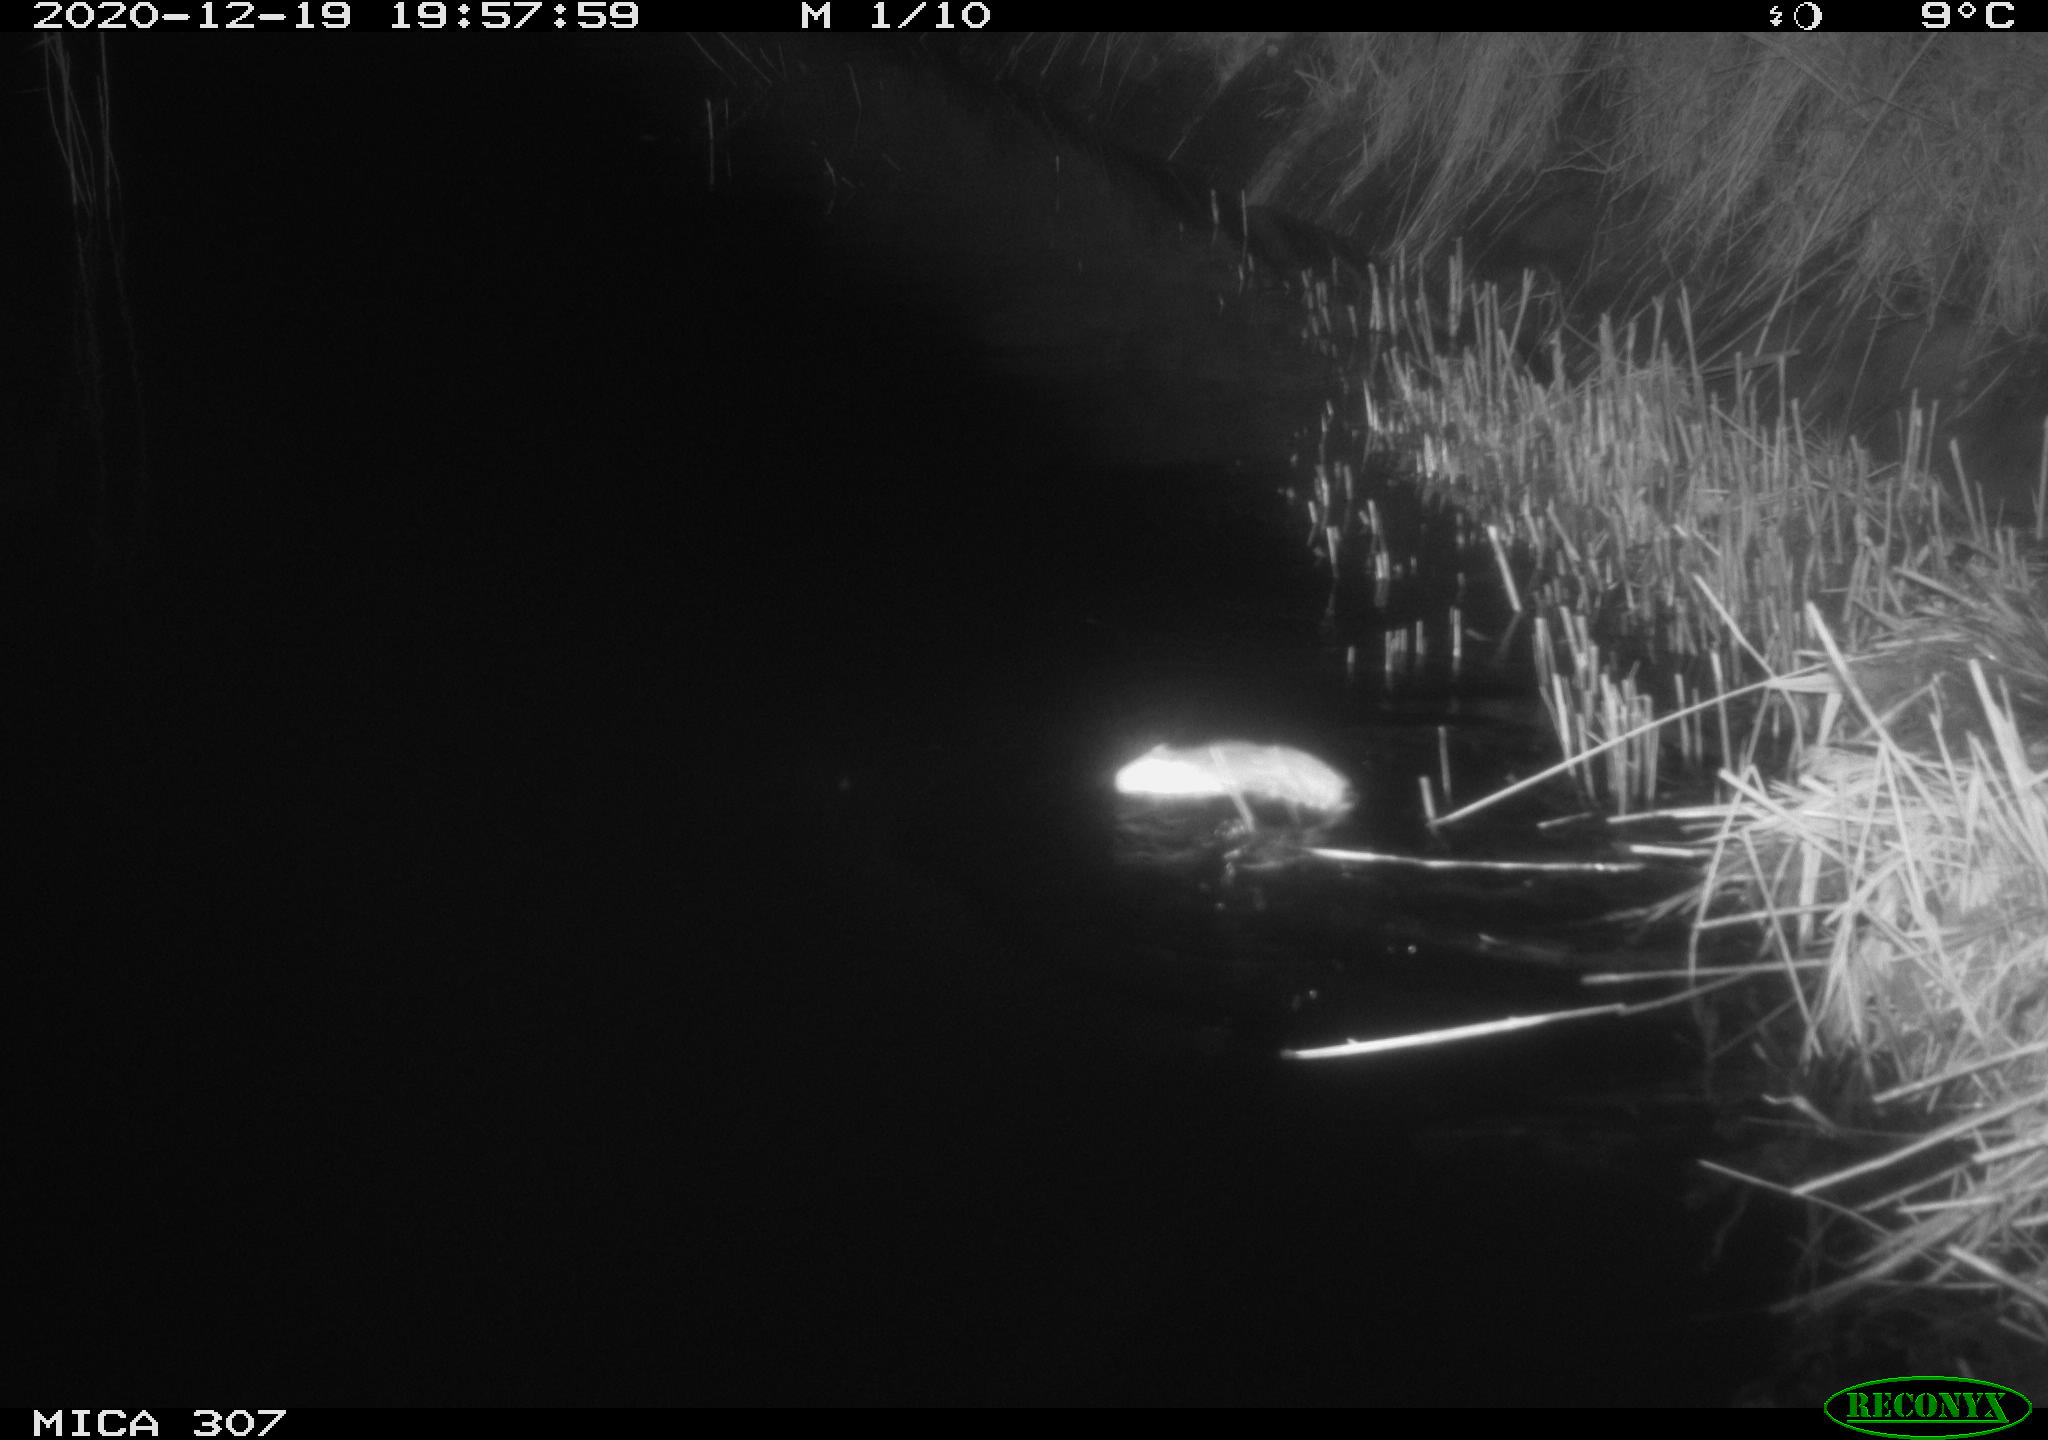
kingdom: Animalia
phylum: Chordata
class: Mammalia
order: Rodentia
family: Muridae
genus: Rattus
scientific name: Rattus norvegicus
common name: Brown rat
